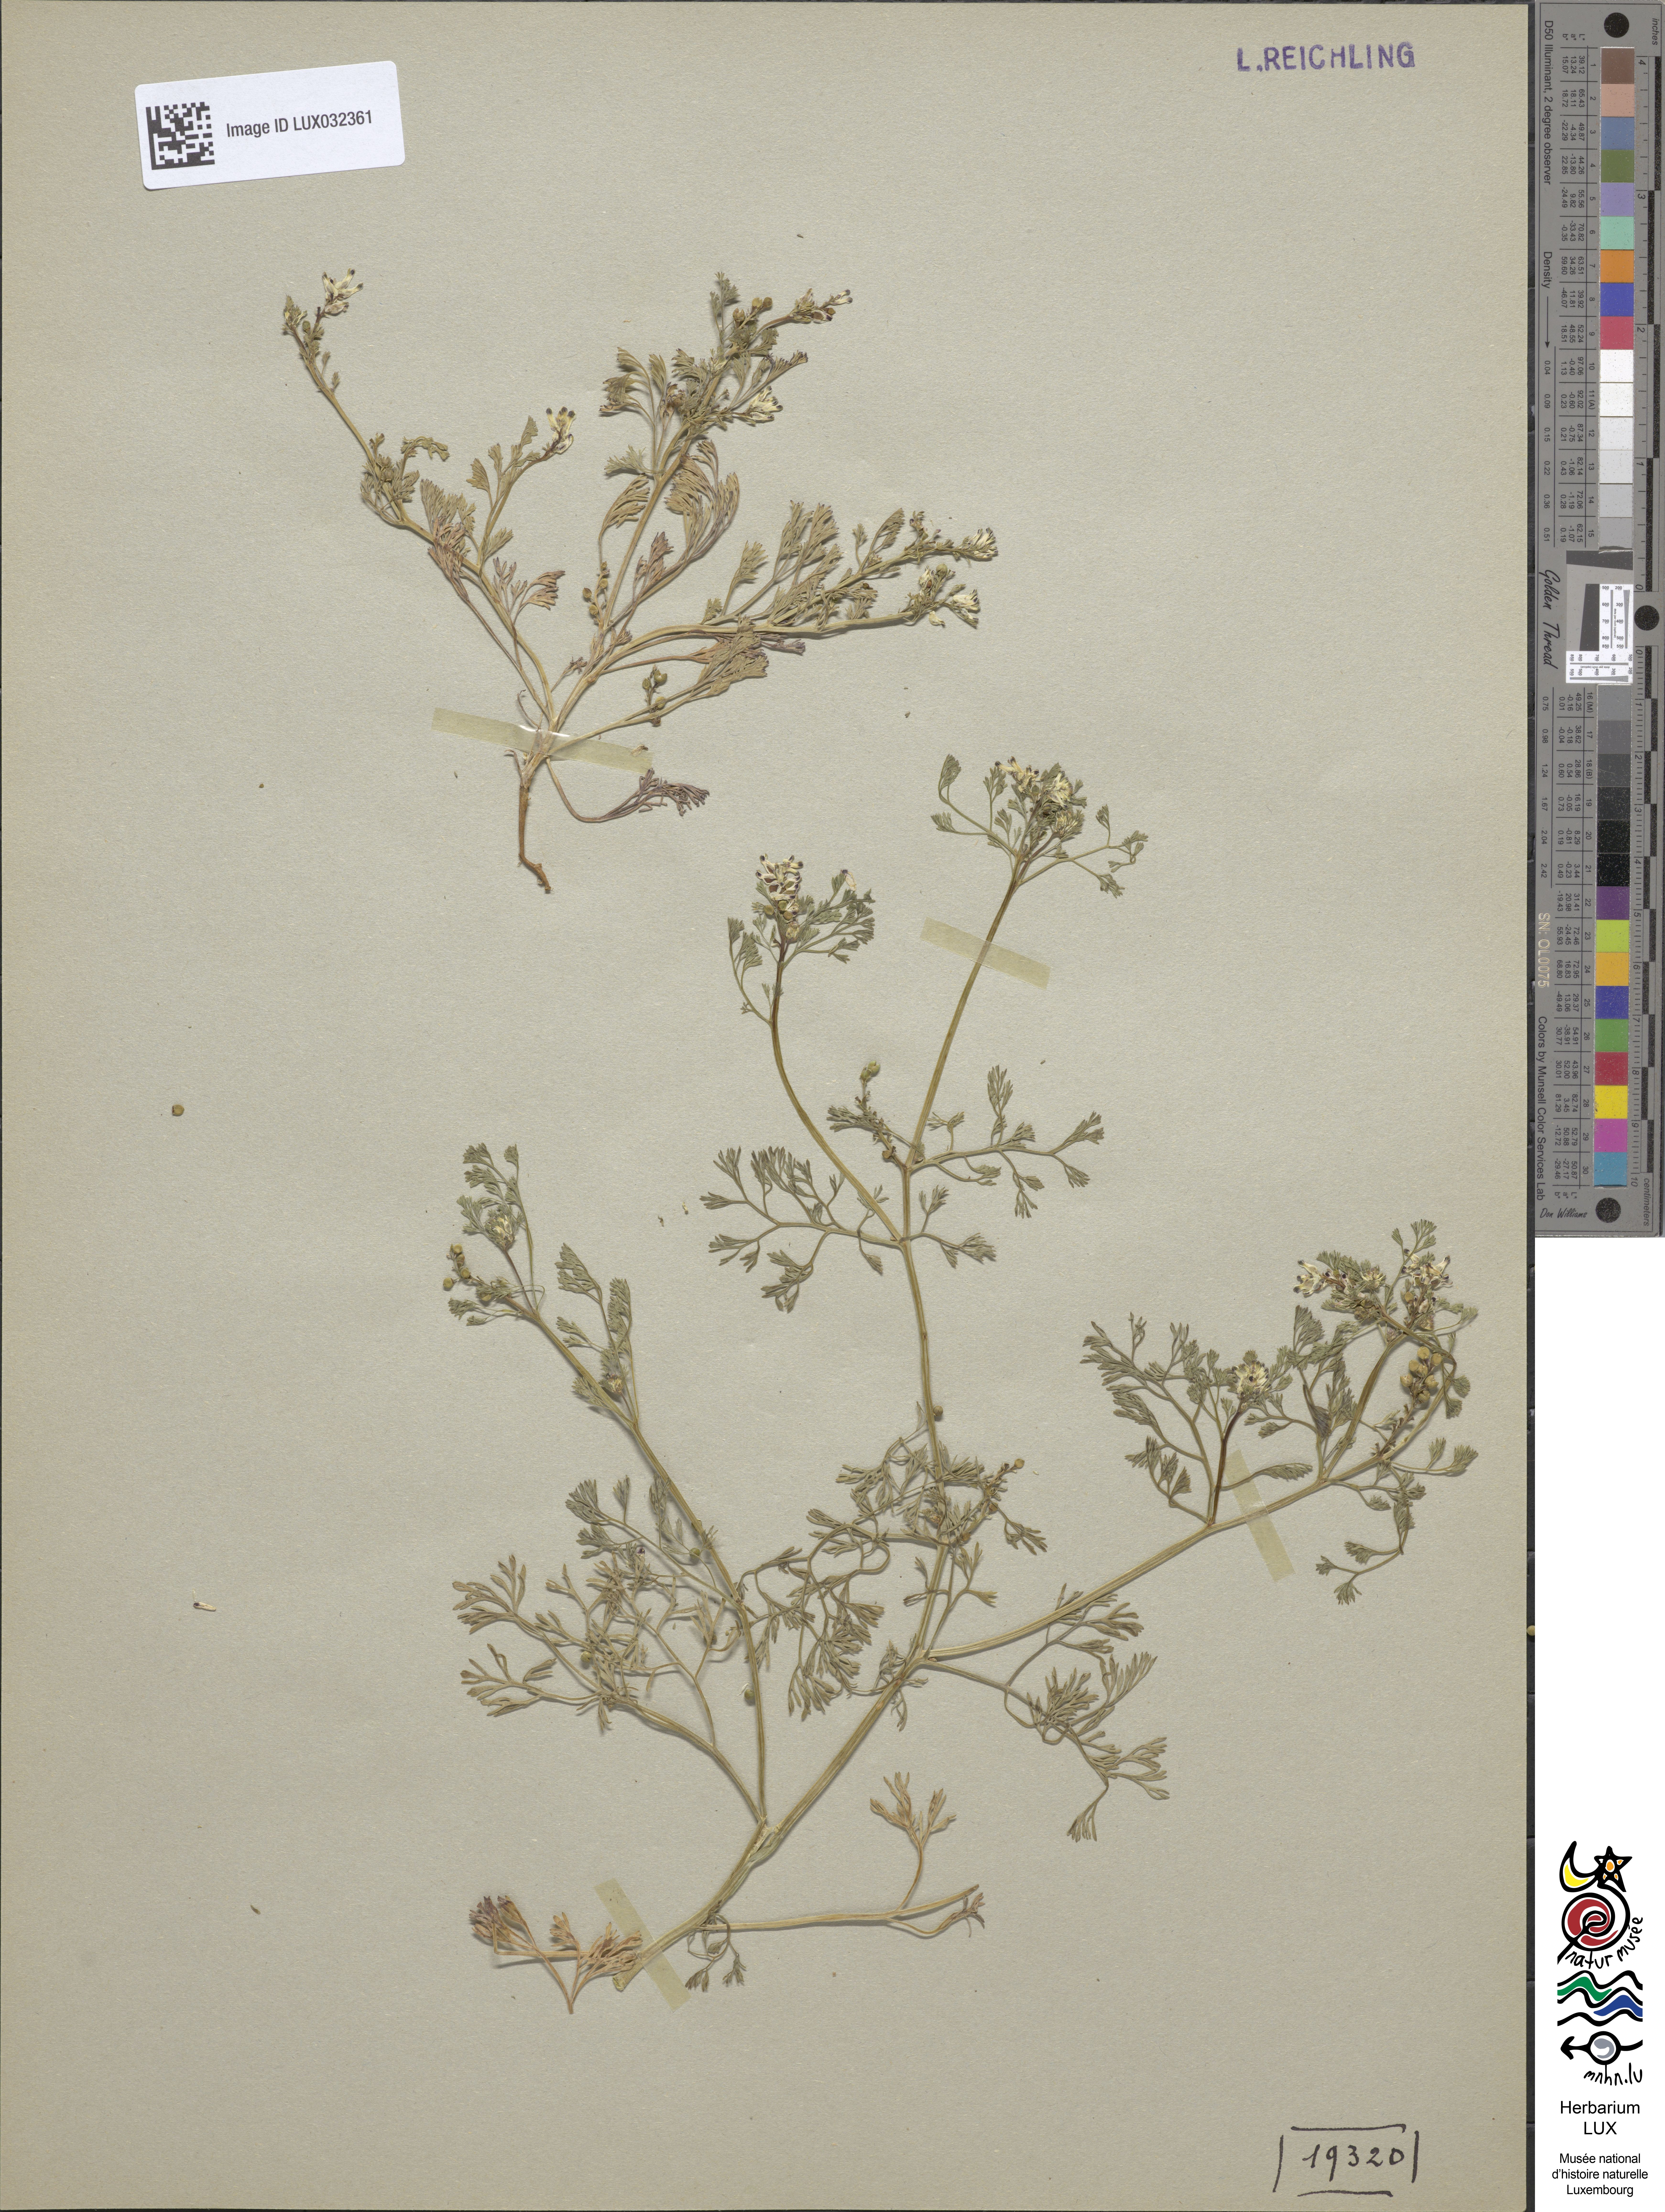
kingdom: Plantae
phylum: Tracheophyta
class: Magnoliopsida
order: Ranunculales
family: Papaveraceae
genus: Fumaria
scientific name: Fumaria parviflora
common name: Fine-leaved fumitory
